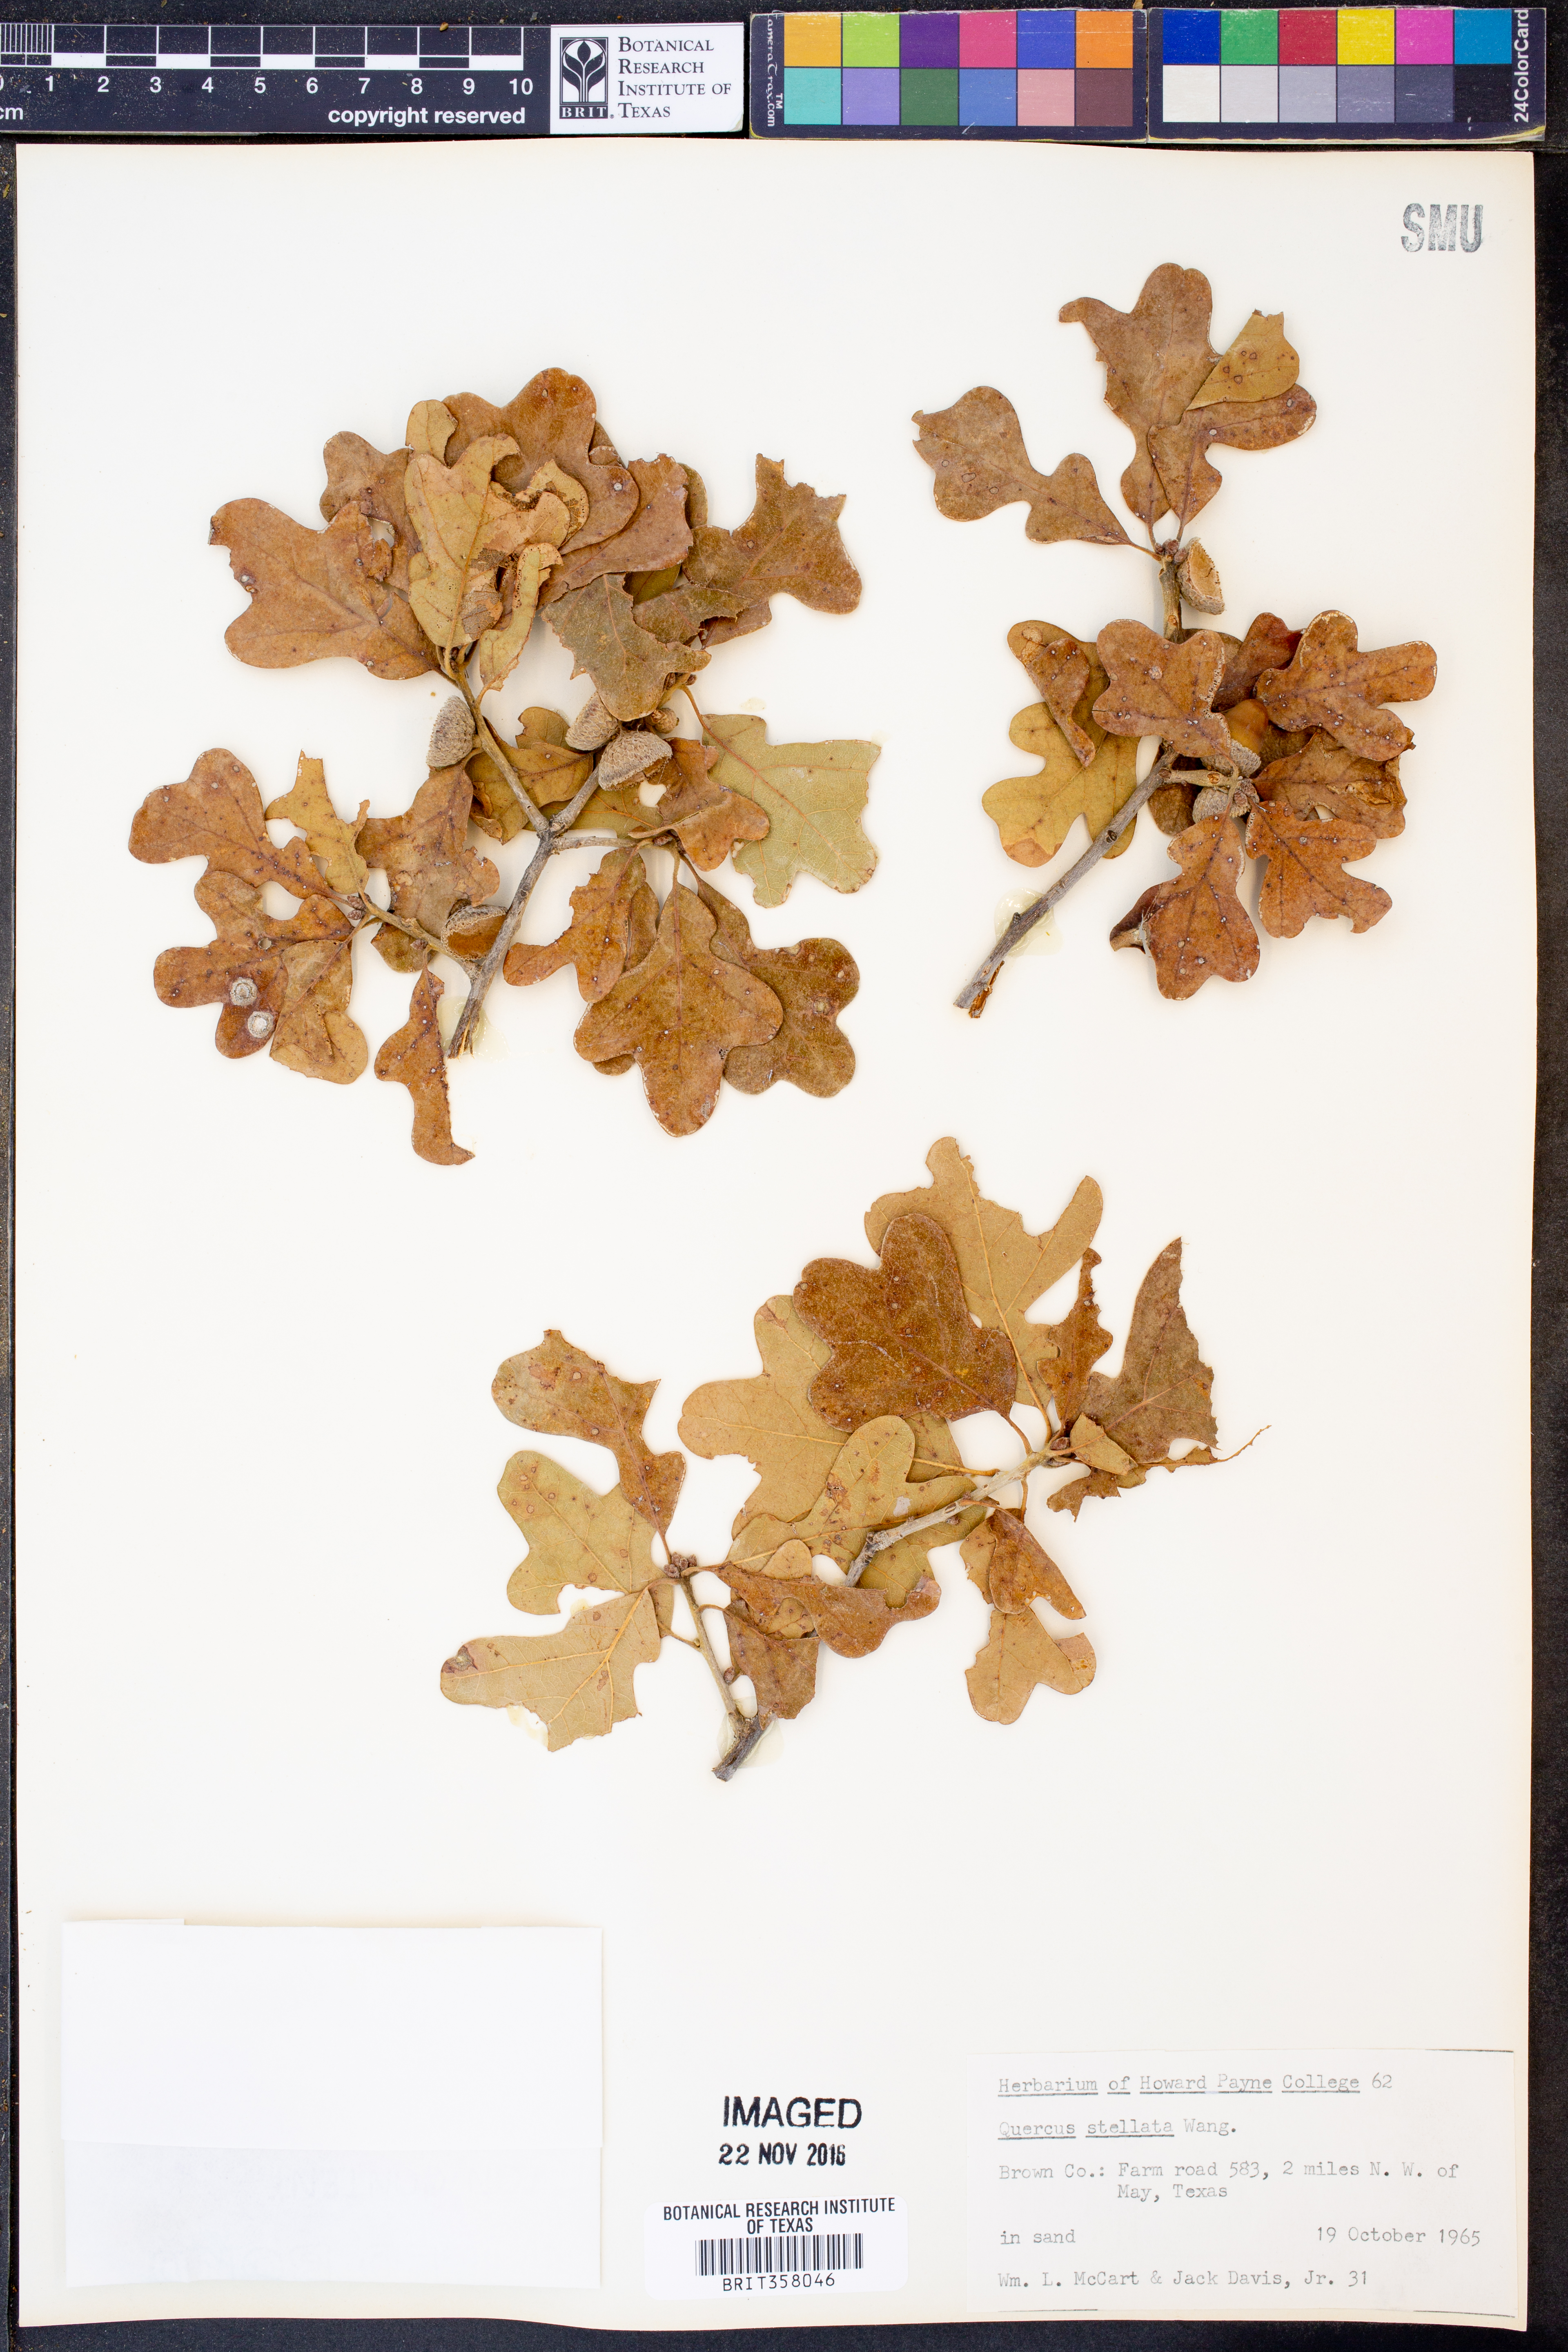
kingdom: Plantae
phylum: Tracheophyta
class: Magnoliopsida
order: Fagales
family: Fagaceae
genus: Quercus
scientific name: Quercus stellata
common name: Post oak
